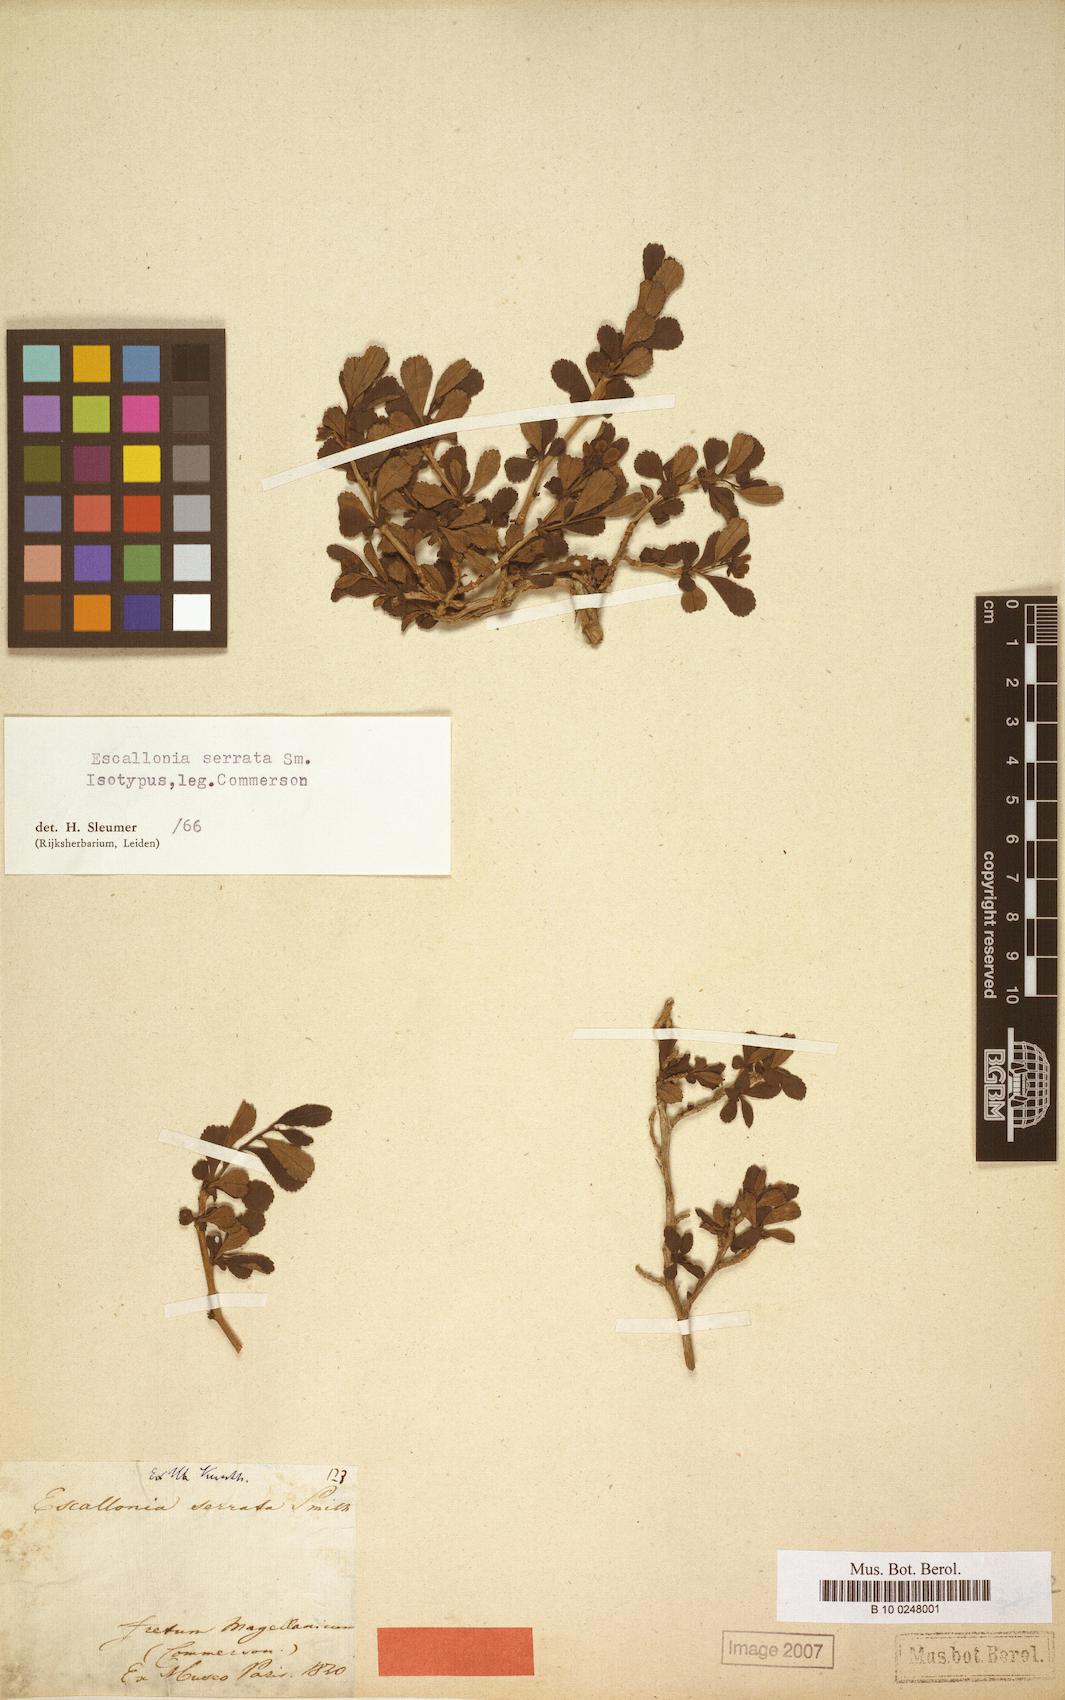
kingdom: Plantae
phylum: Tracheophyta
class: Magnoliopsida
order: Escalloniales
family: Escalloniaceae
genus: Escallonia
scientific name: Escallonia serrata
